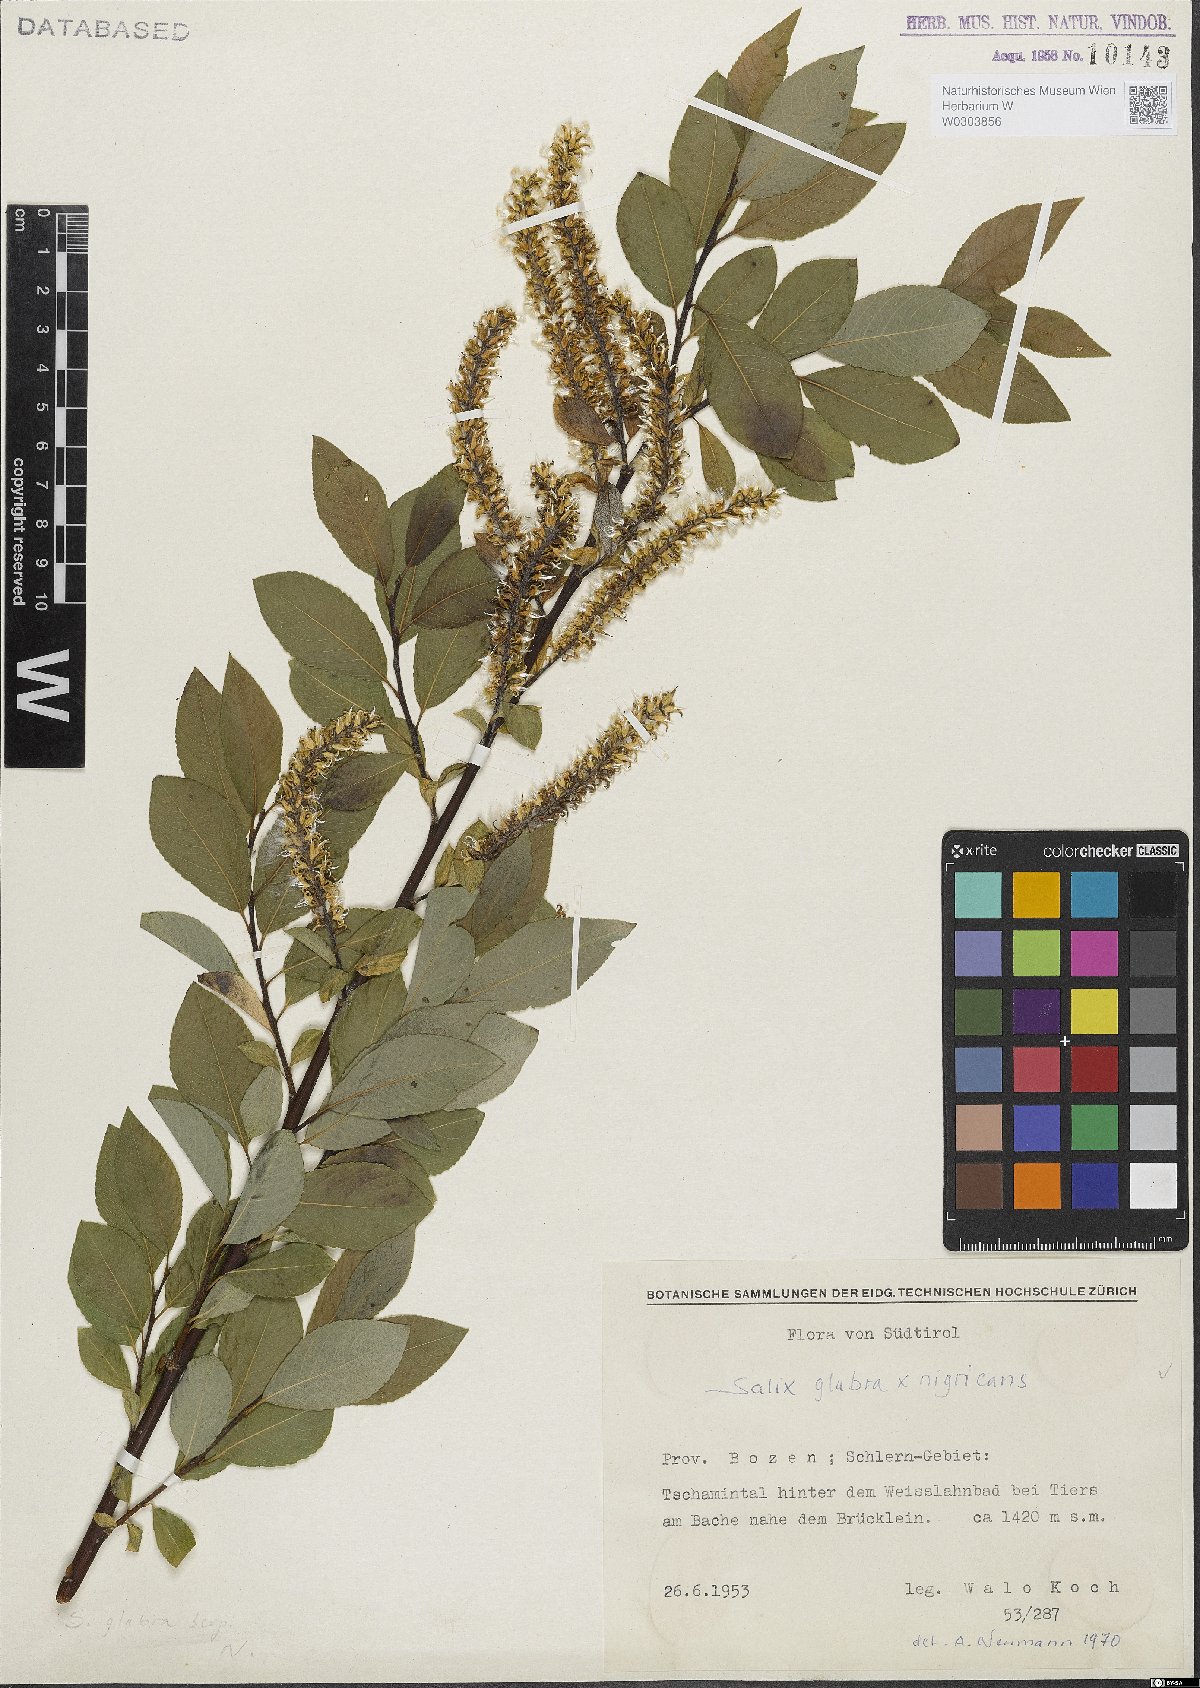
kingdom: Plantae
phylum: Tracheophyta
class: Magnoliopsida
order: Malpighiales
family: Salicaceae
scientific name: Salicaceae
